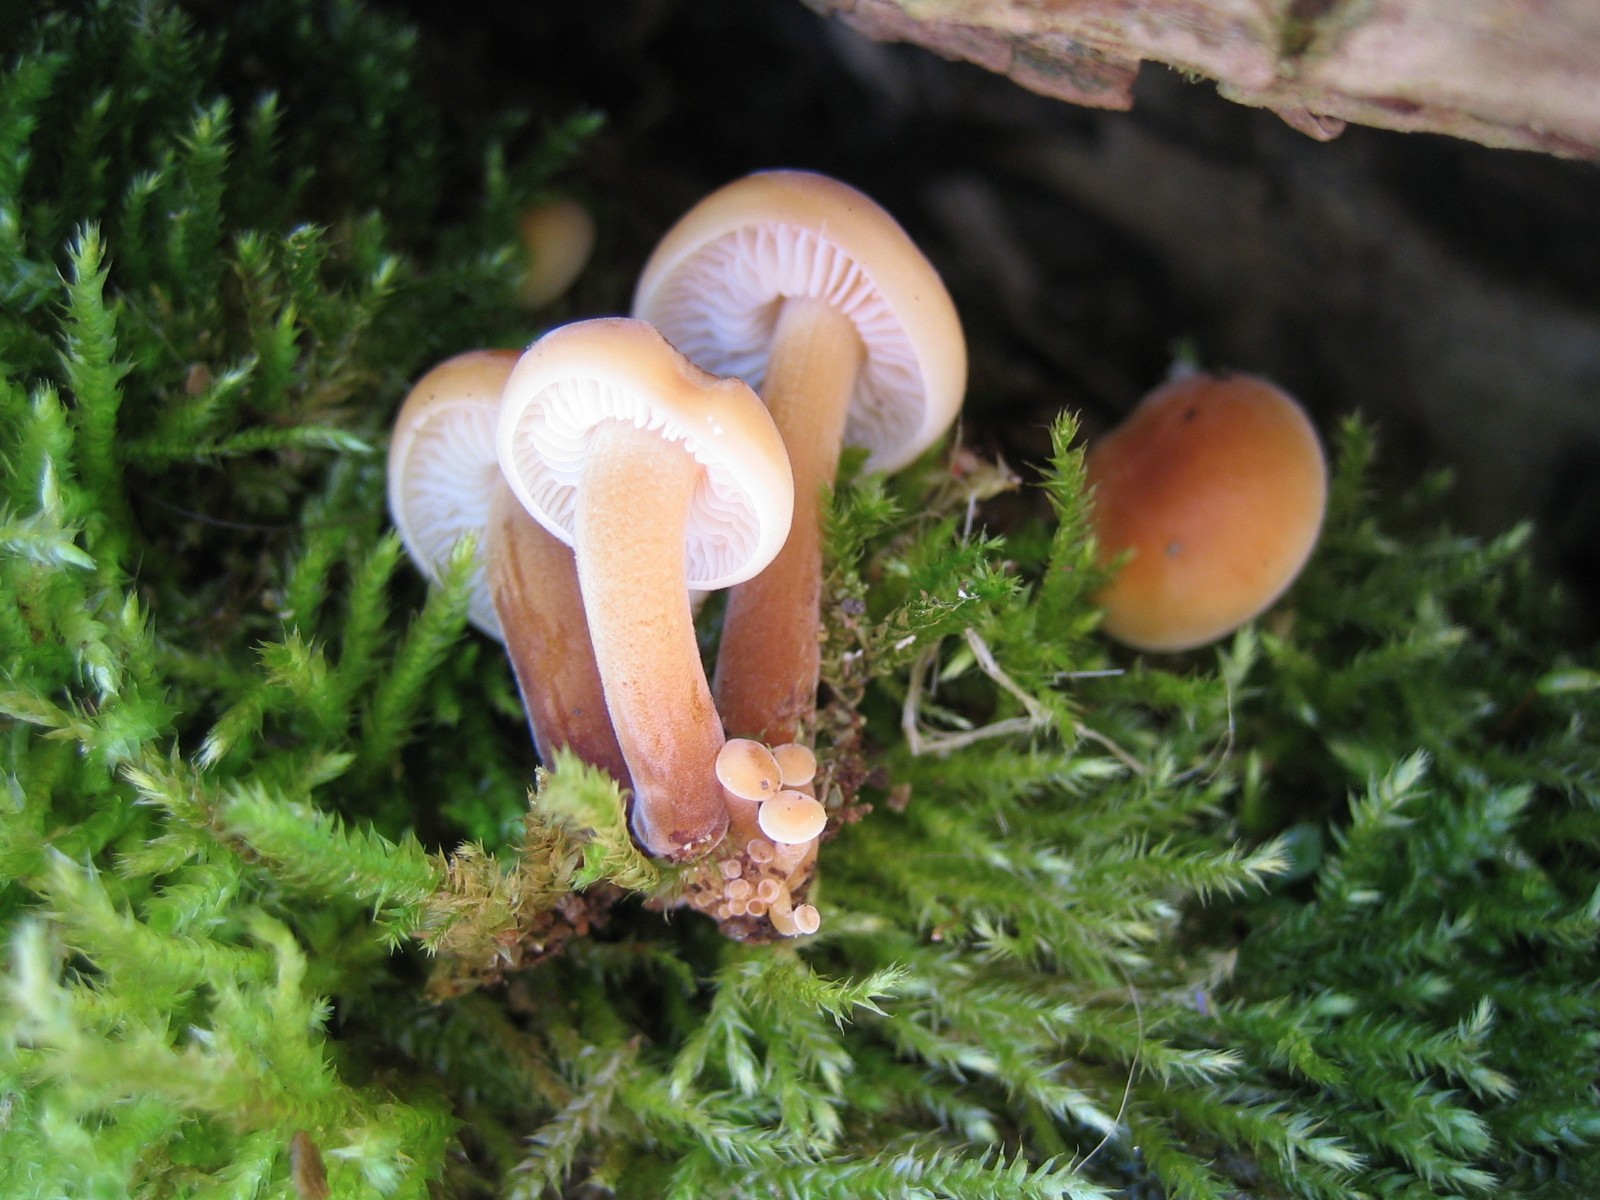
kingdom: Fungi
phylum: Basidiomycota
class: Agaricomycetes
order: Agaricales
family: Physalacriaceae
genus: Flammulina
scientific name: Flammulina
